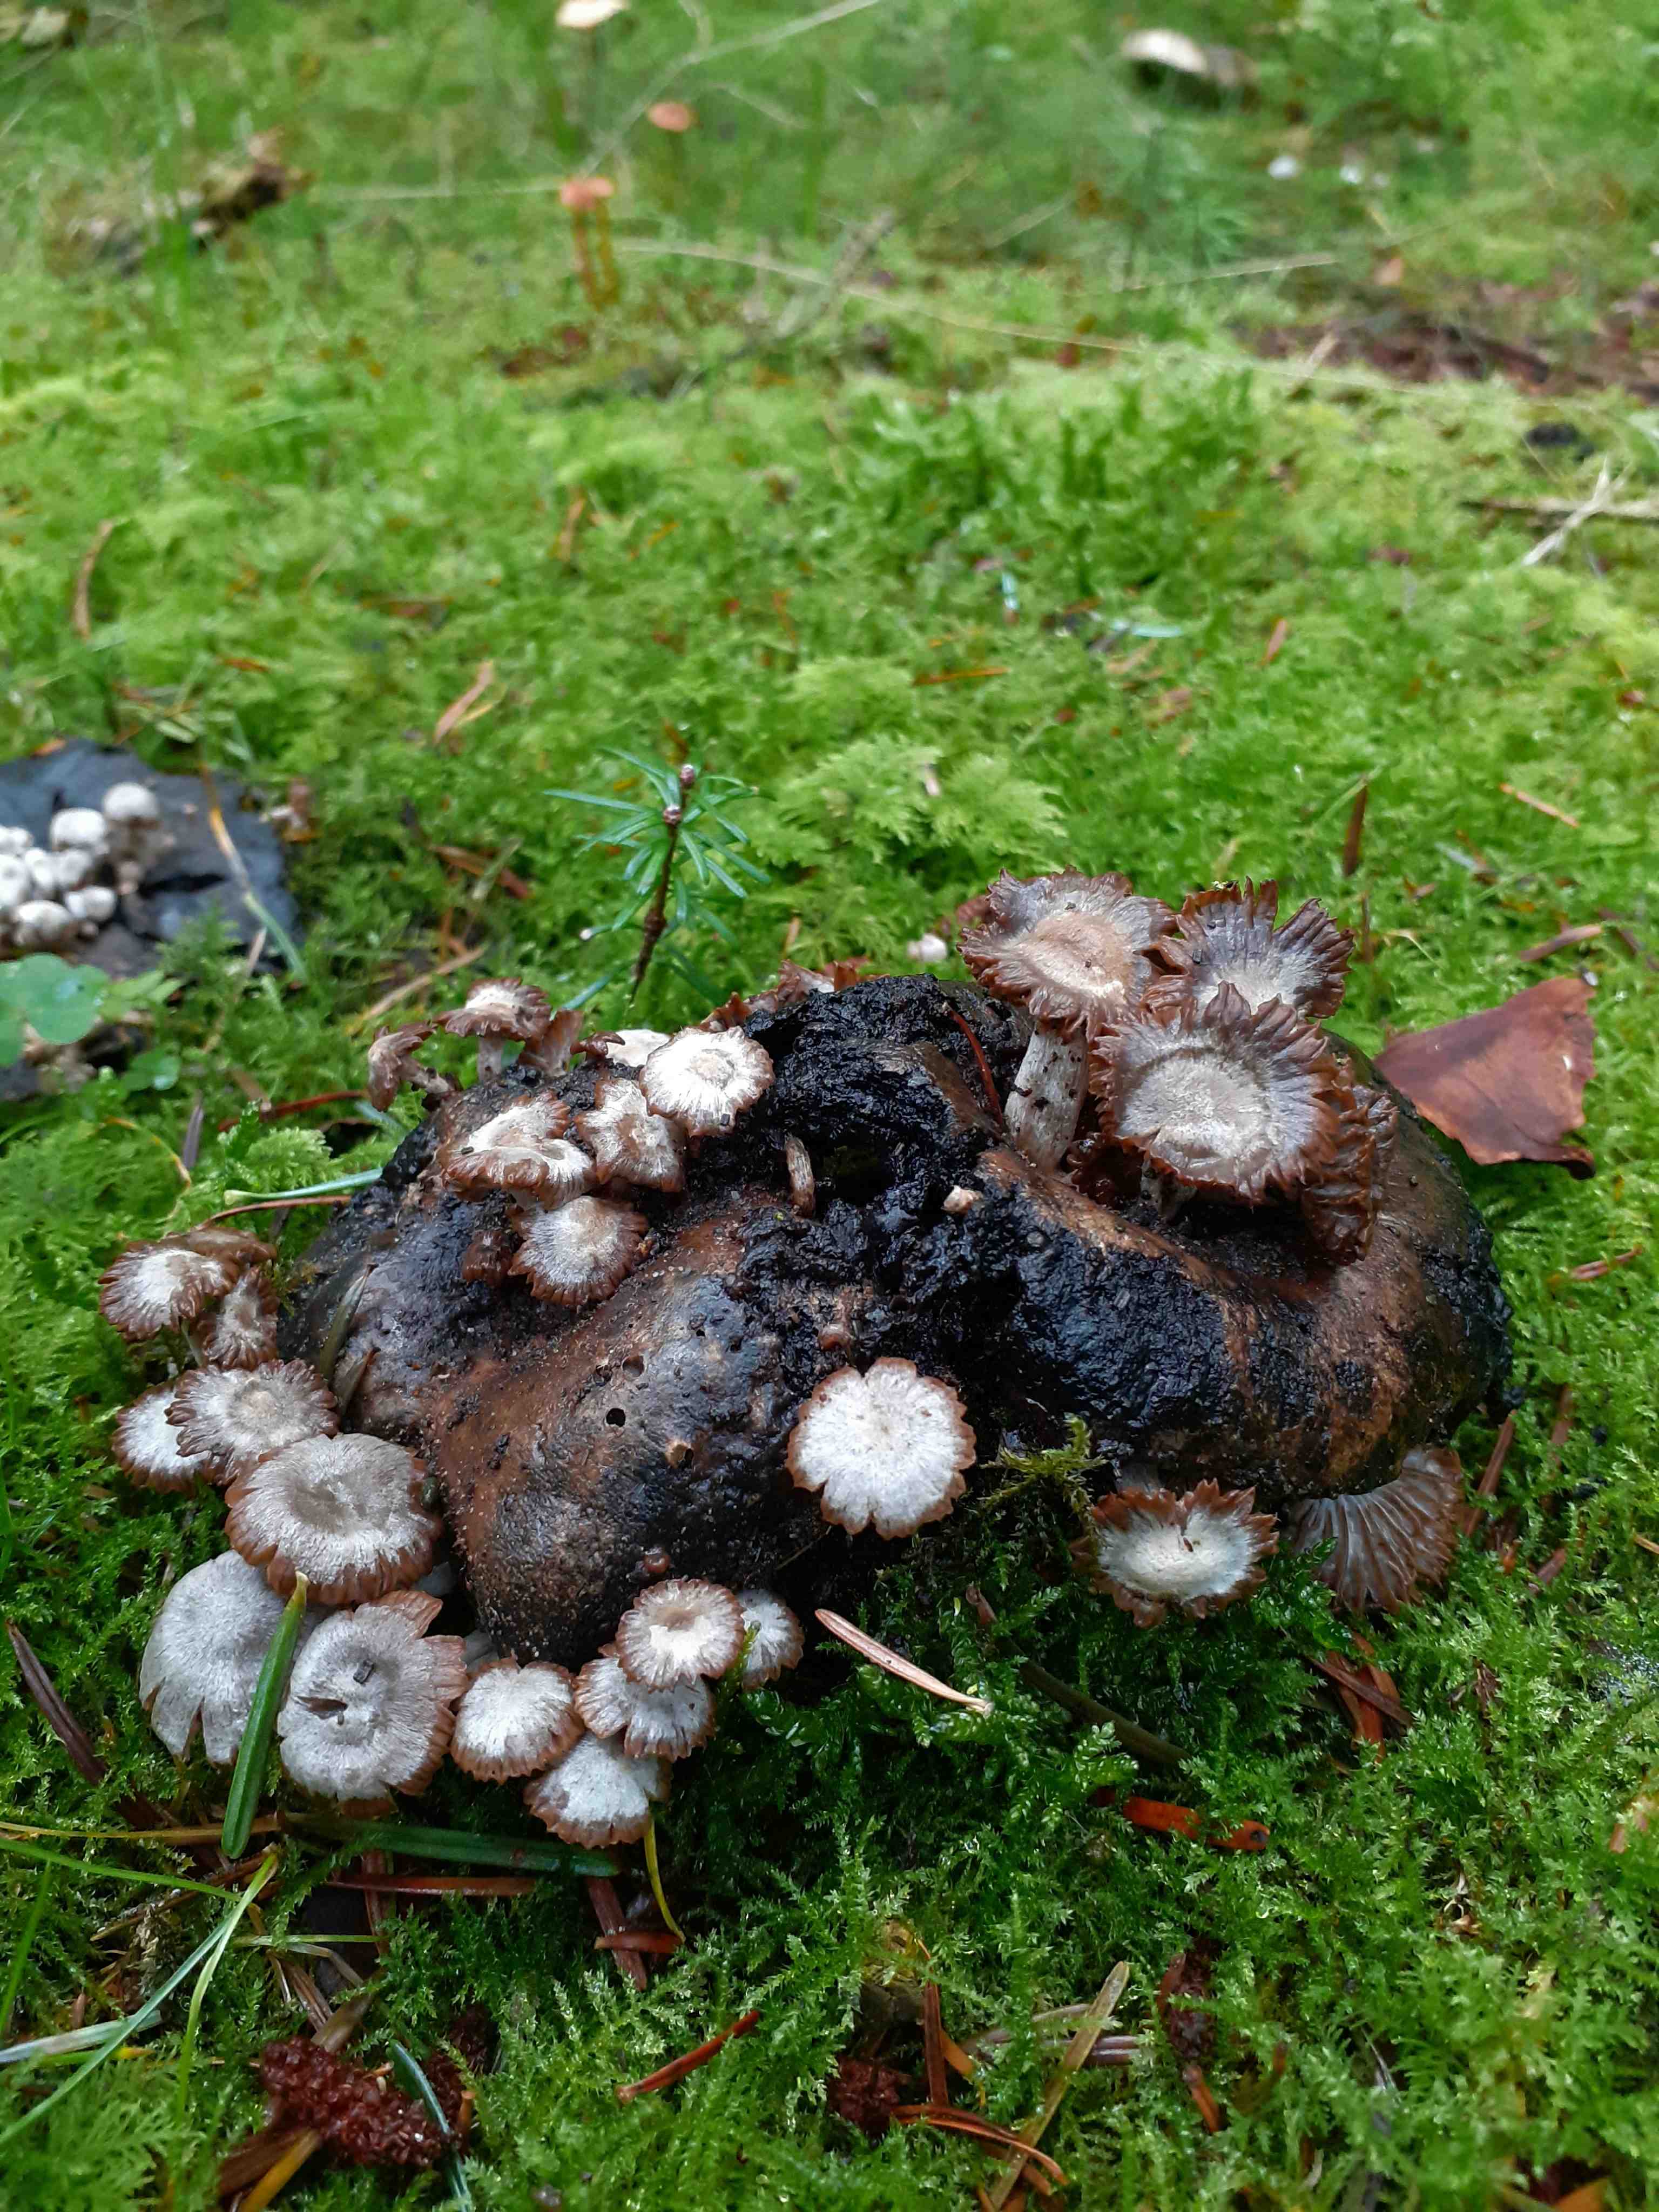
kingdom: Fungi
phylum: Basidiomycota
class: Agaricomycetes
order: Agaricales
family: Lyophyllaceae
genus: Asterophora
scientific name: Asterophora parasitica
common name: grå snyltehat
